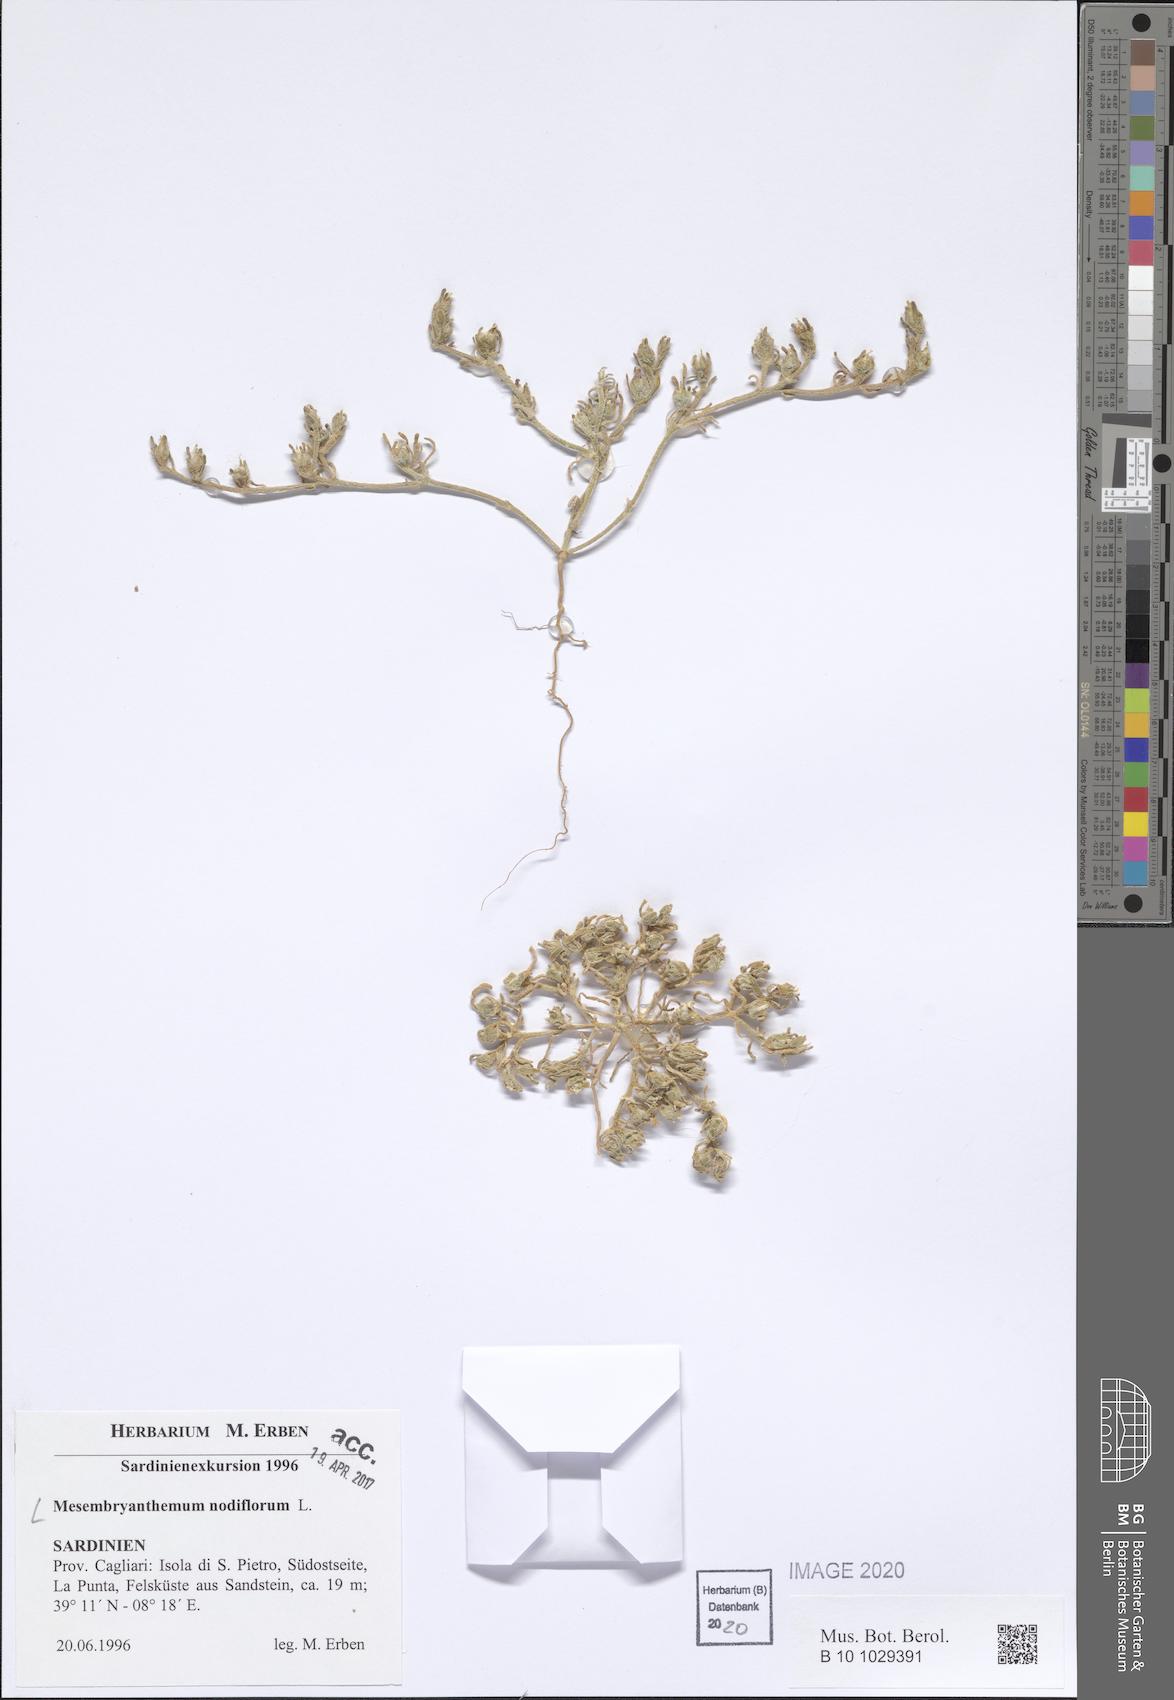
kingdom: Plantae
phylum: Tracheophyta
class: Magnoliopsida
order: Caryophyllales
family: Aizoaceae
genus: Mesembryanthemum
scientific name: Mesembryanthemum nodiflorum
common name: Slenderleaf iceplant
